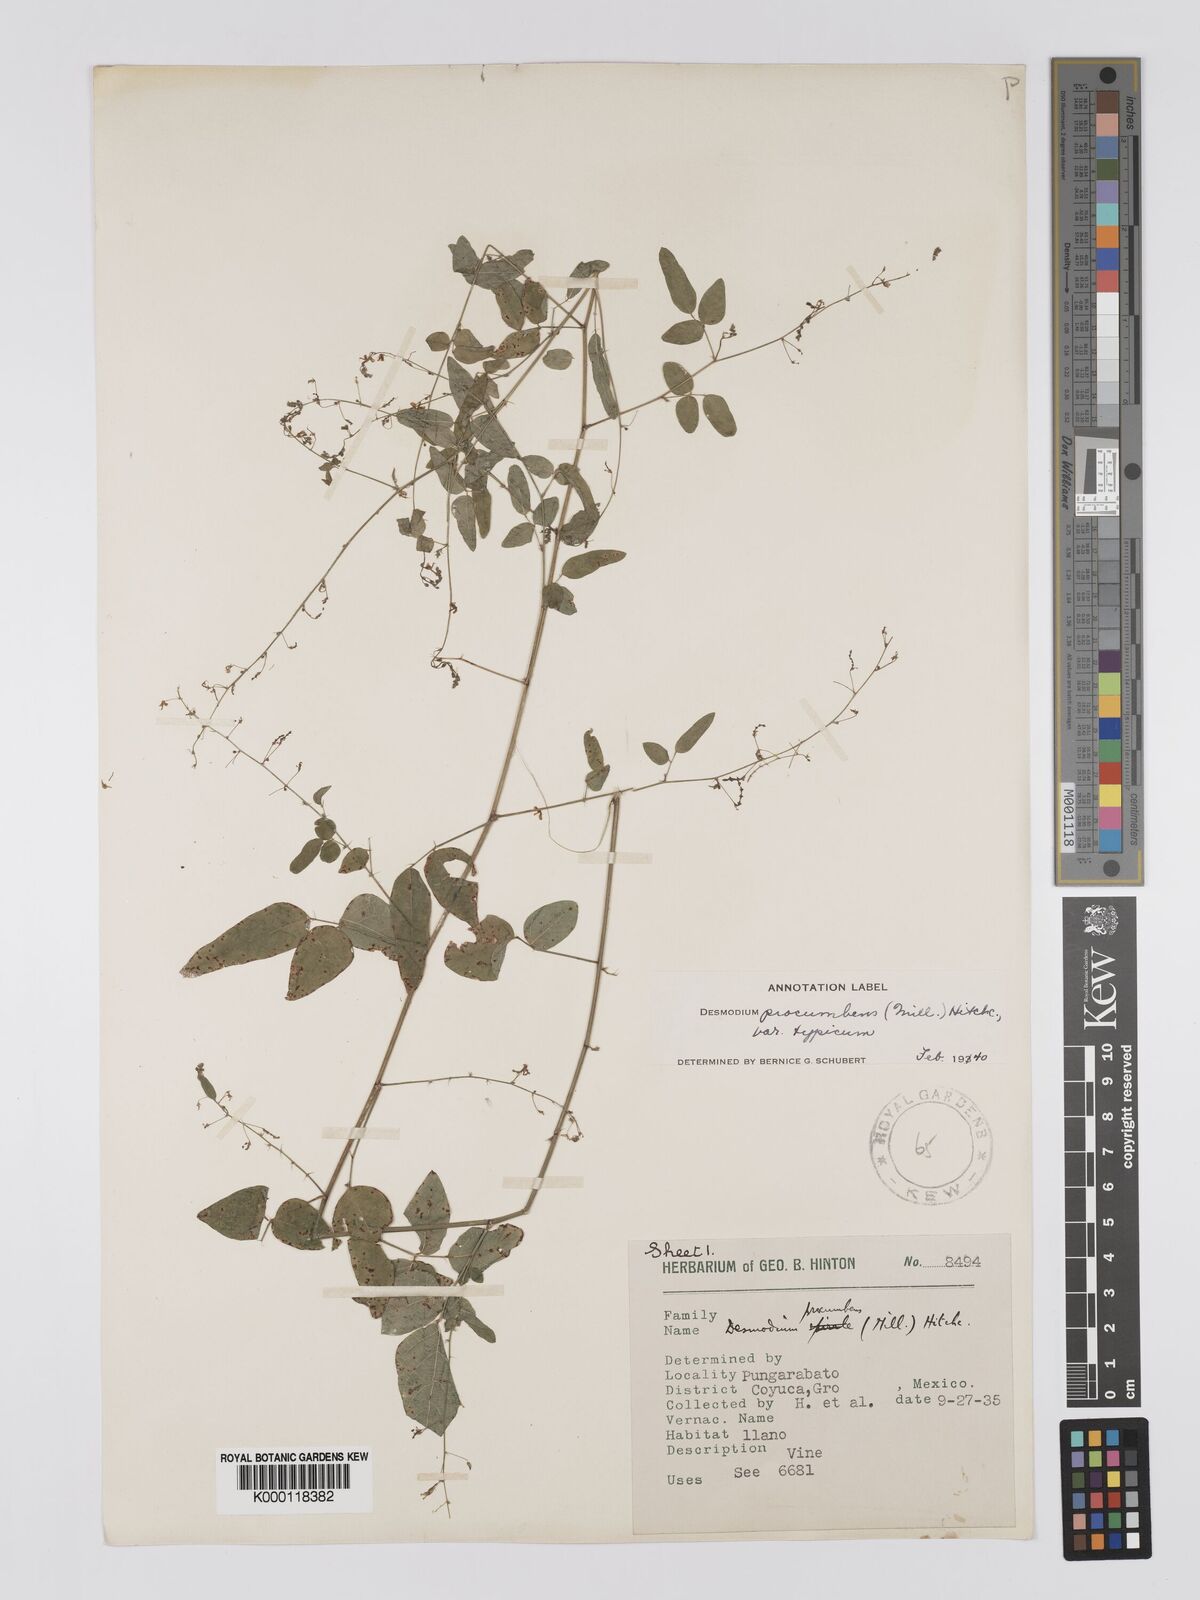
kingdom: Plantae
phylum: Tracheophyta
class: Magnoliopsida
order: Fabales
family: Fabaceae
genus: Desmodium
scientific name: Desmodium procumbens
